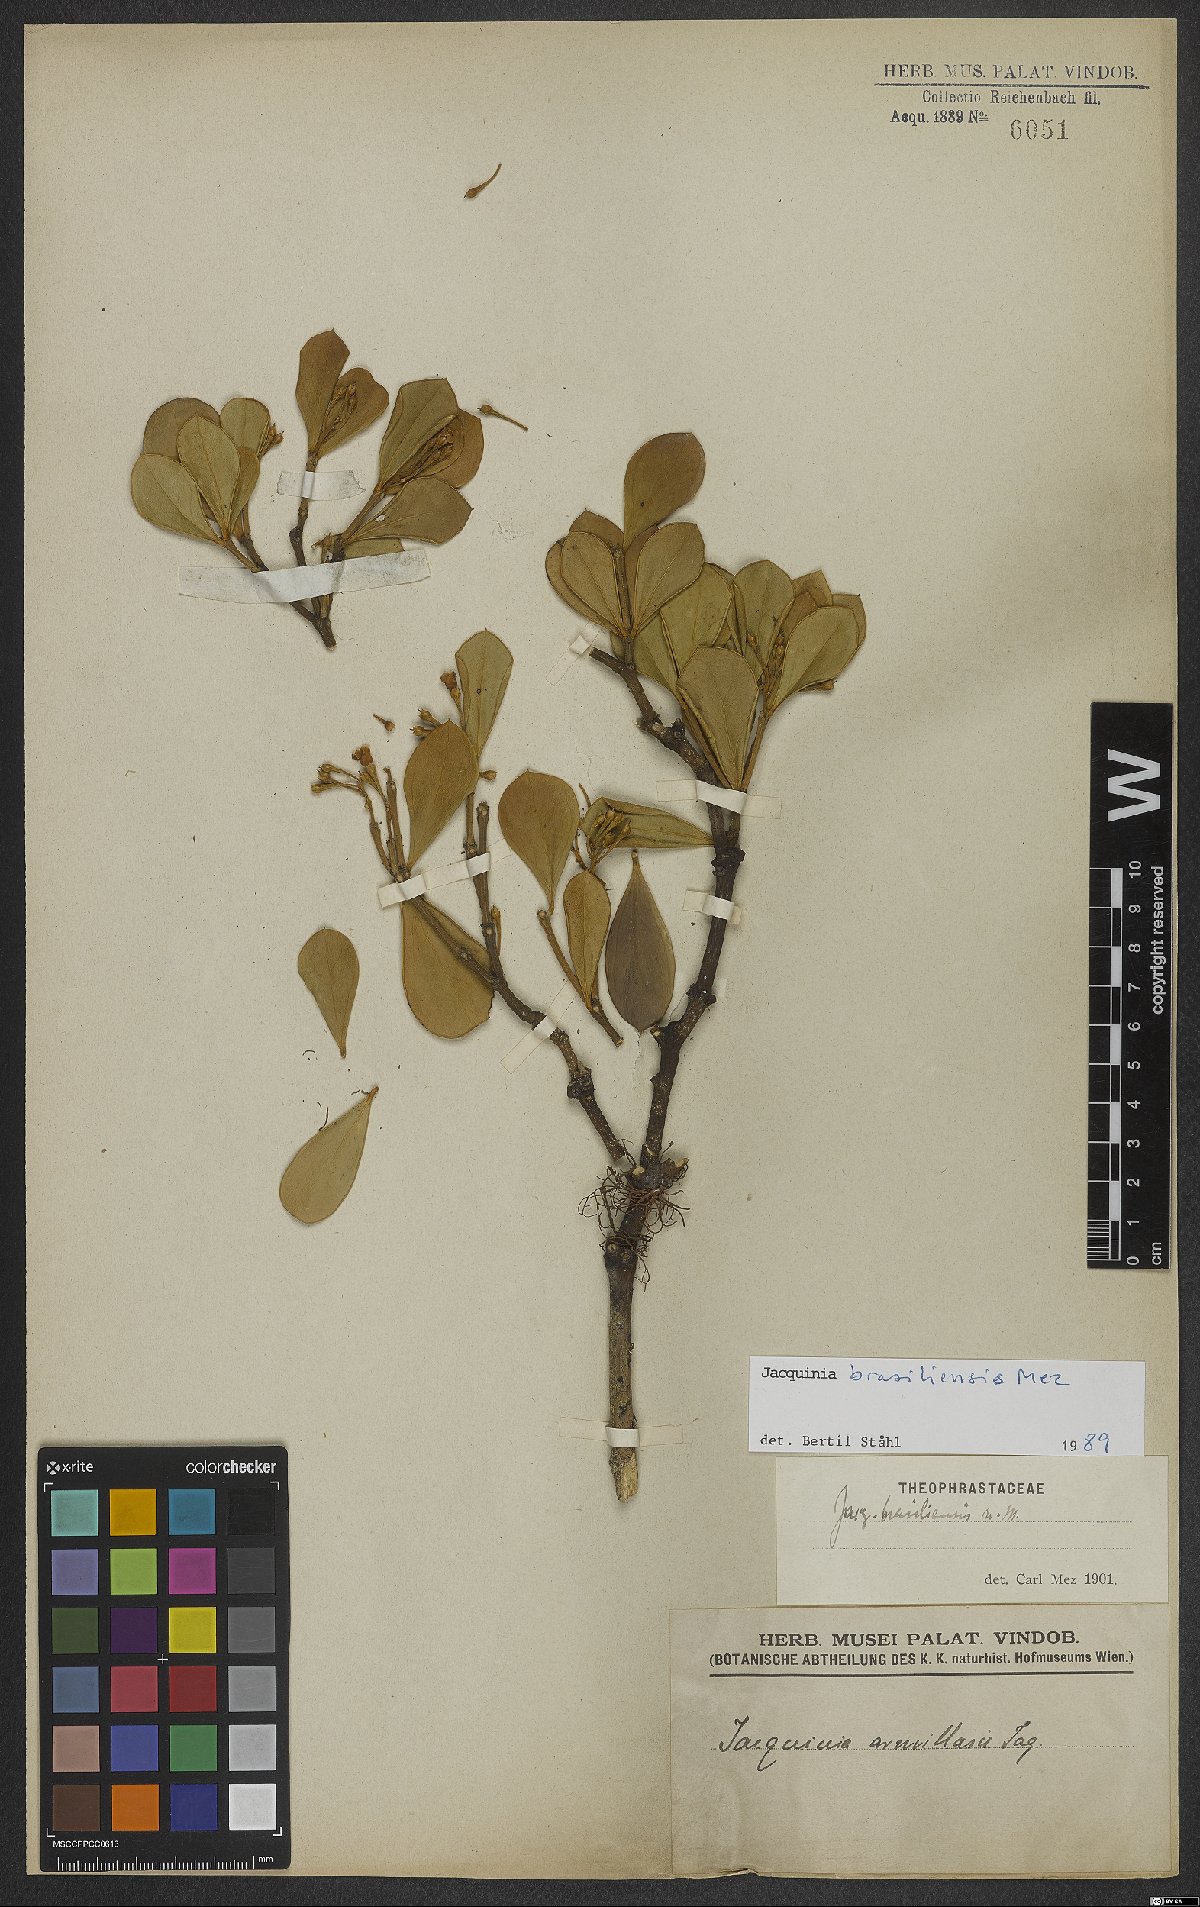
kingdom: Plantae
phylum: Tracheophyta
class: Magnoliopsida
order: Ericales
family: Primulaceae
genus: Jacquinia
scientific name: Jacquinia armillaris
